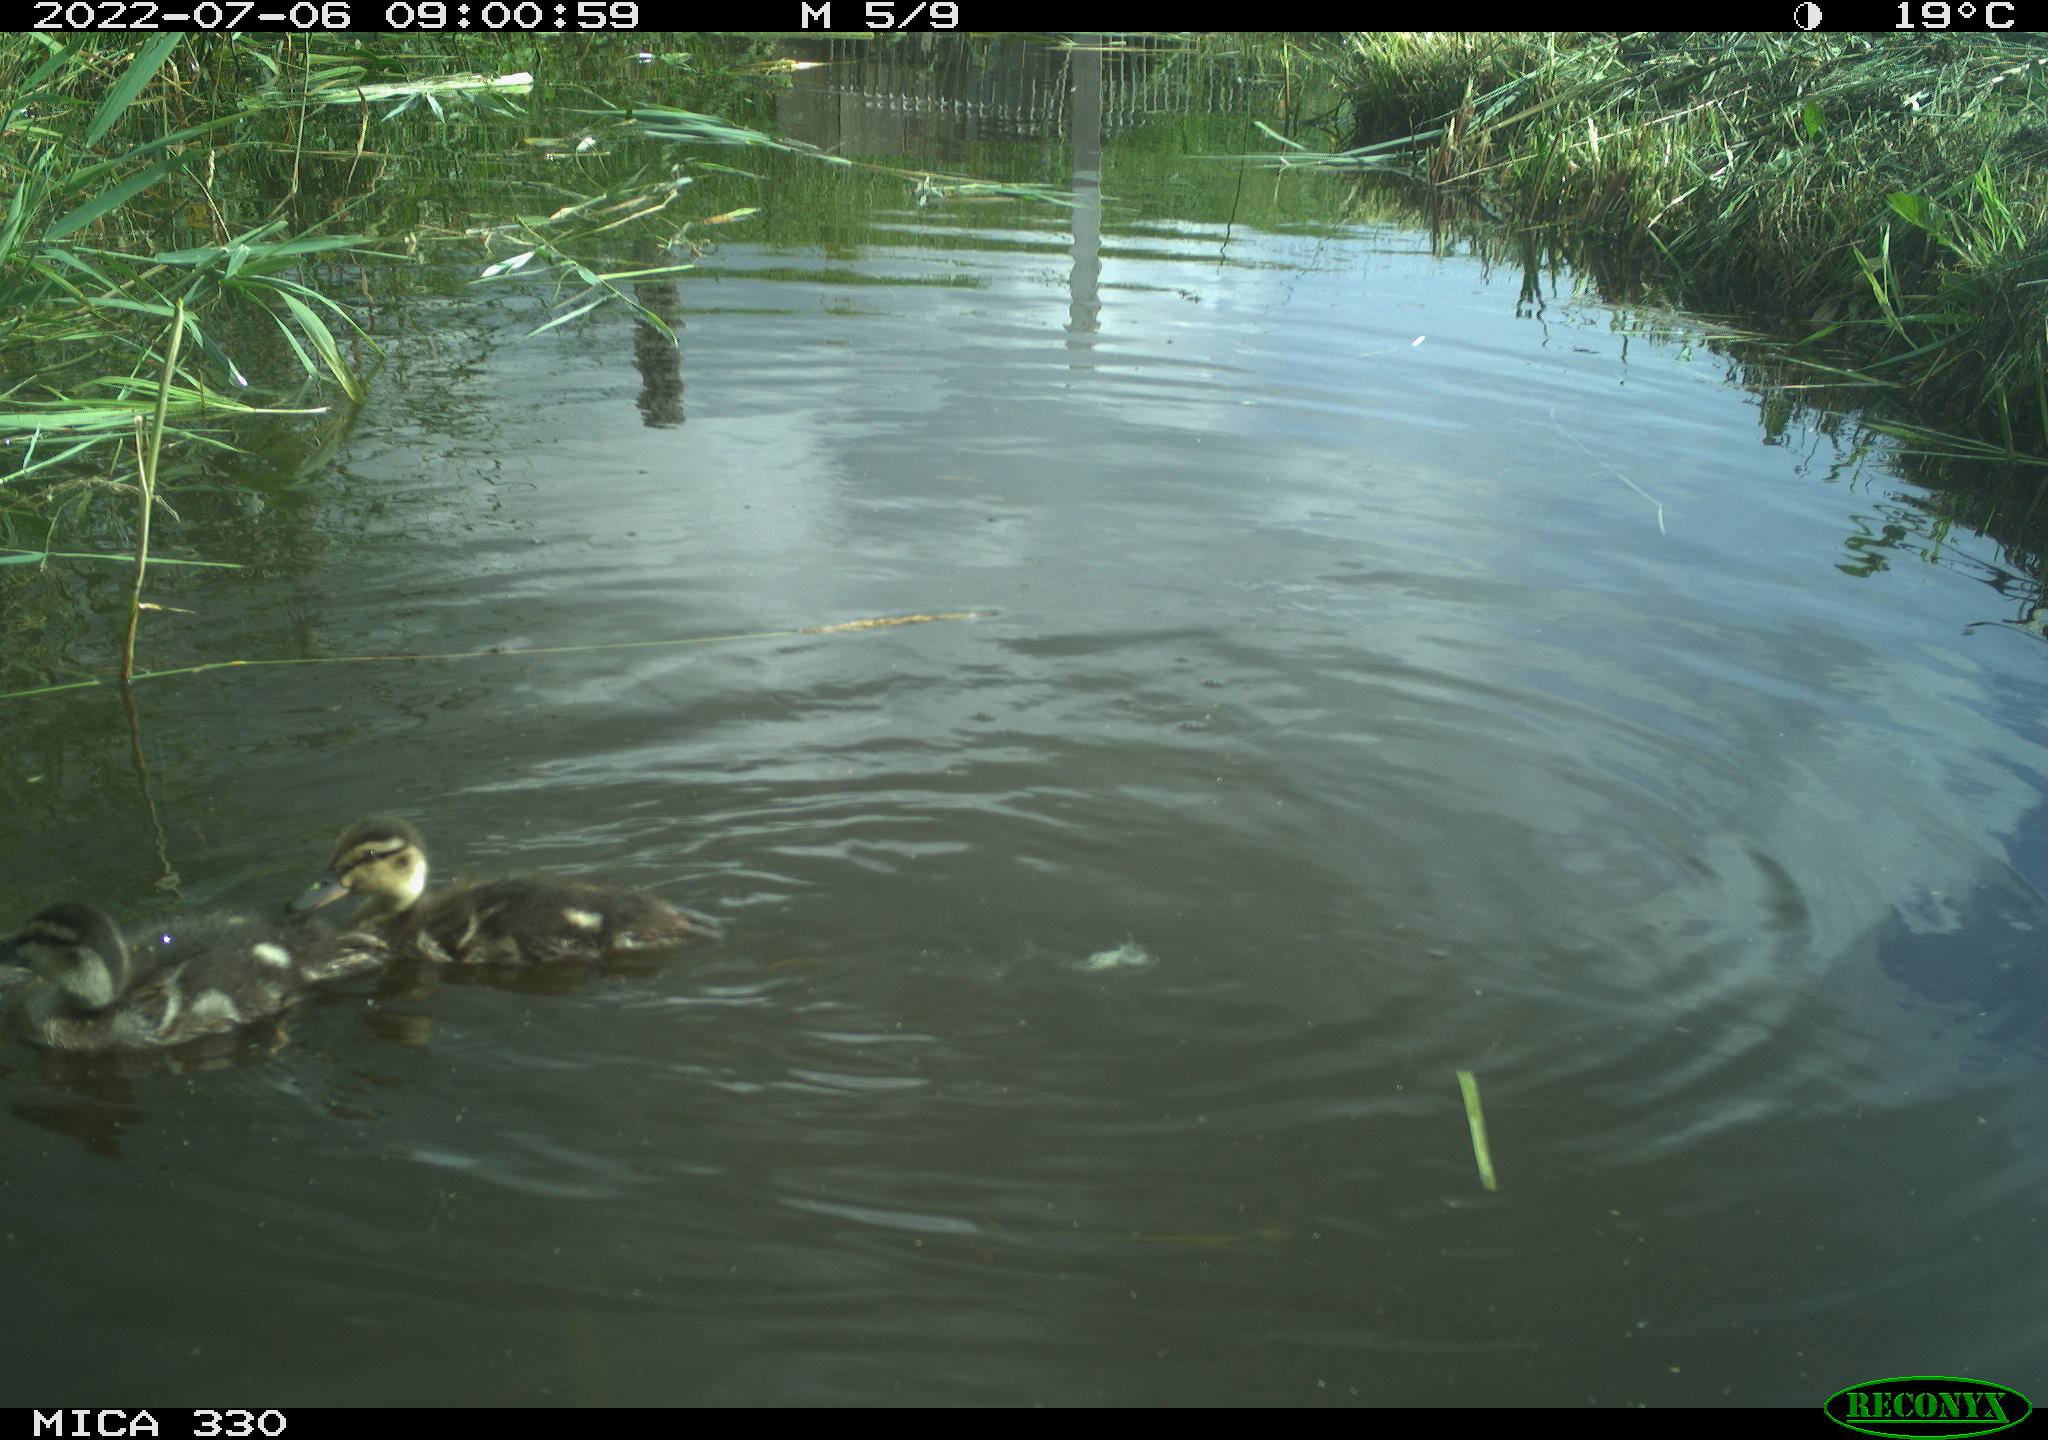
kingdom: Animalia
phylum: Chordata
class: Aves
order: Anseriformes
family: Anatidae
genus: Anas
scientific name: Anas platyrhynchos
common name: Mallard
